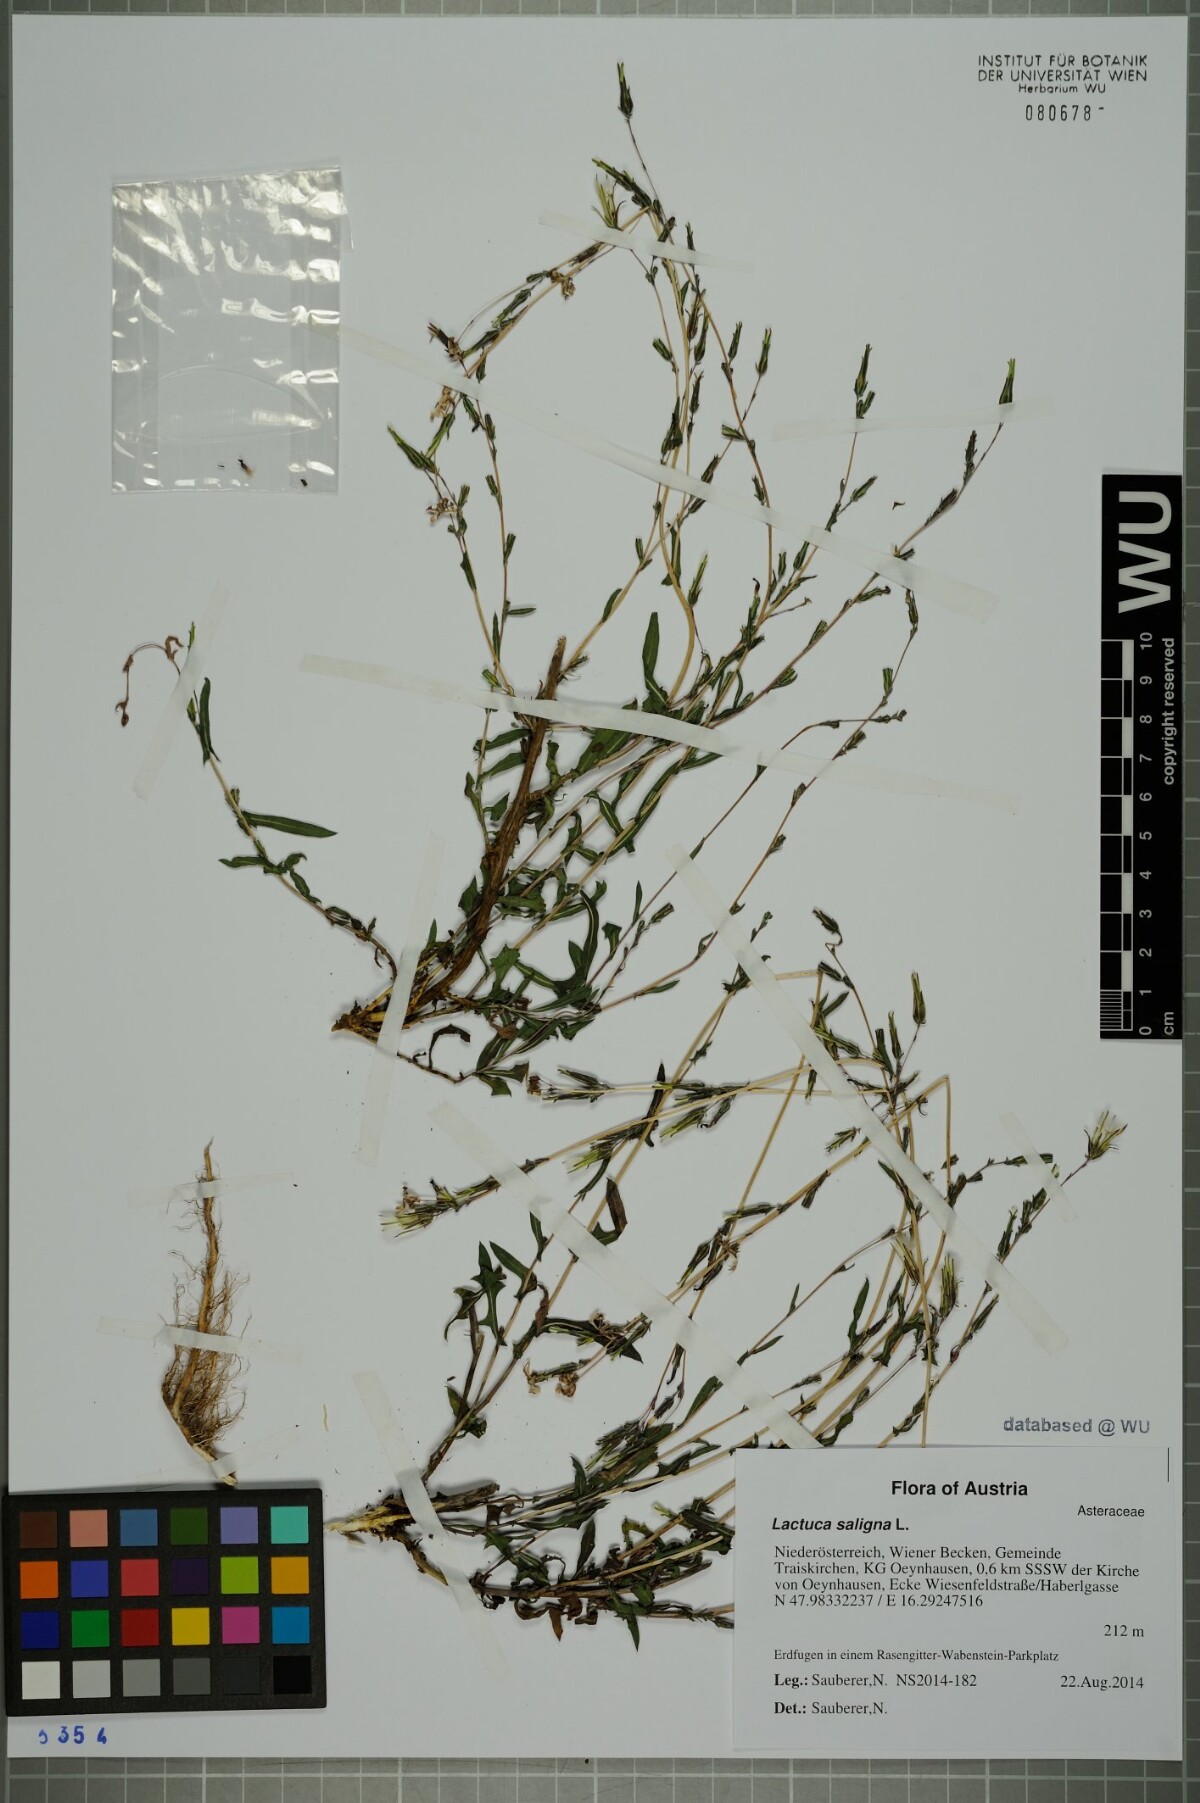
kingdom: Plantae
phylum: Tracheophyta
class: Magnoliopsida
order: Asterales
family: Asteraceae
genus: Lactuca
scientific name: Lactuca saligna
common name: Wild lettuce
